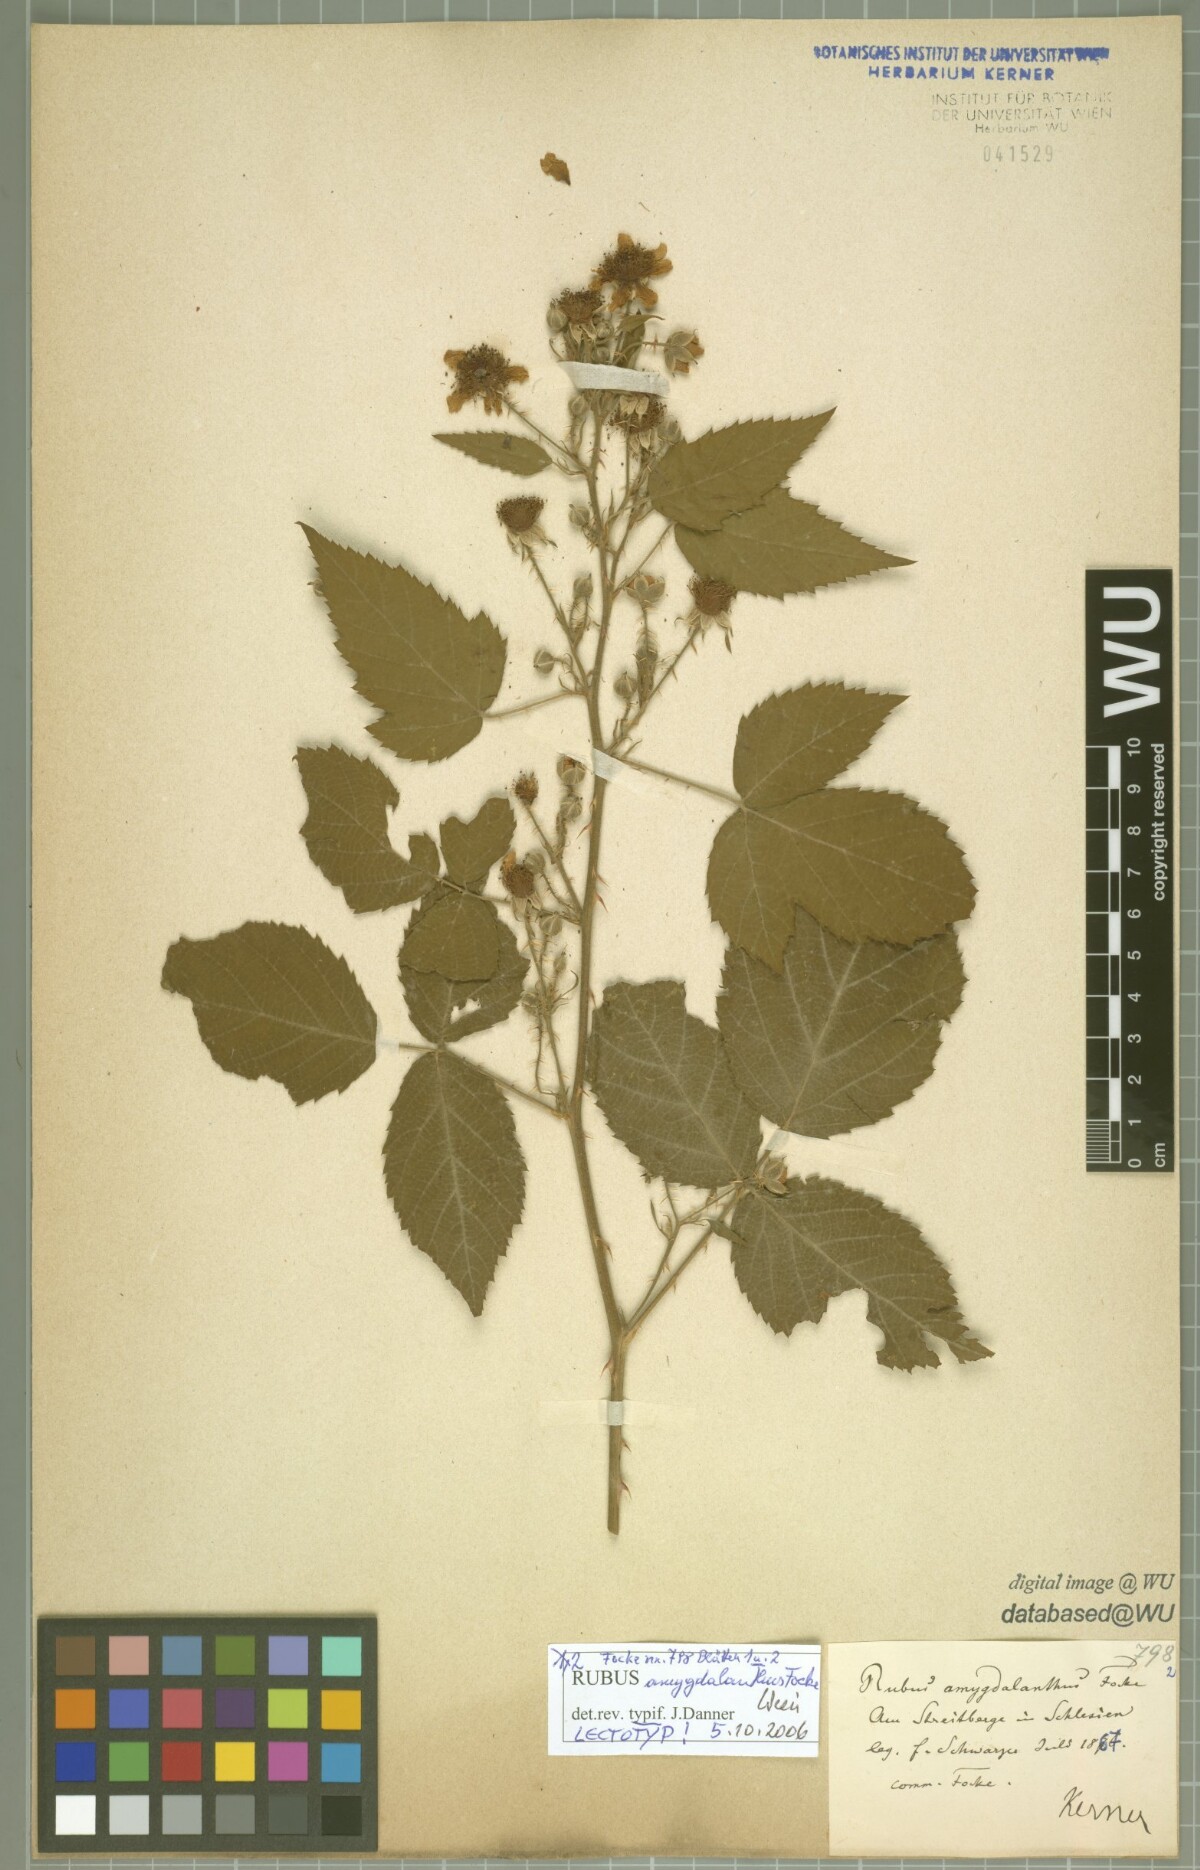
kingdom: Plantae
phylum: Tracheophyta
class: Magnoliopsida
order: Rosales
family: Rosaceae
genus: Rubus
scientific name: Rubus amygdalanthus
